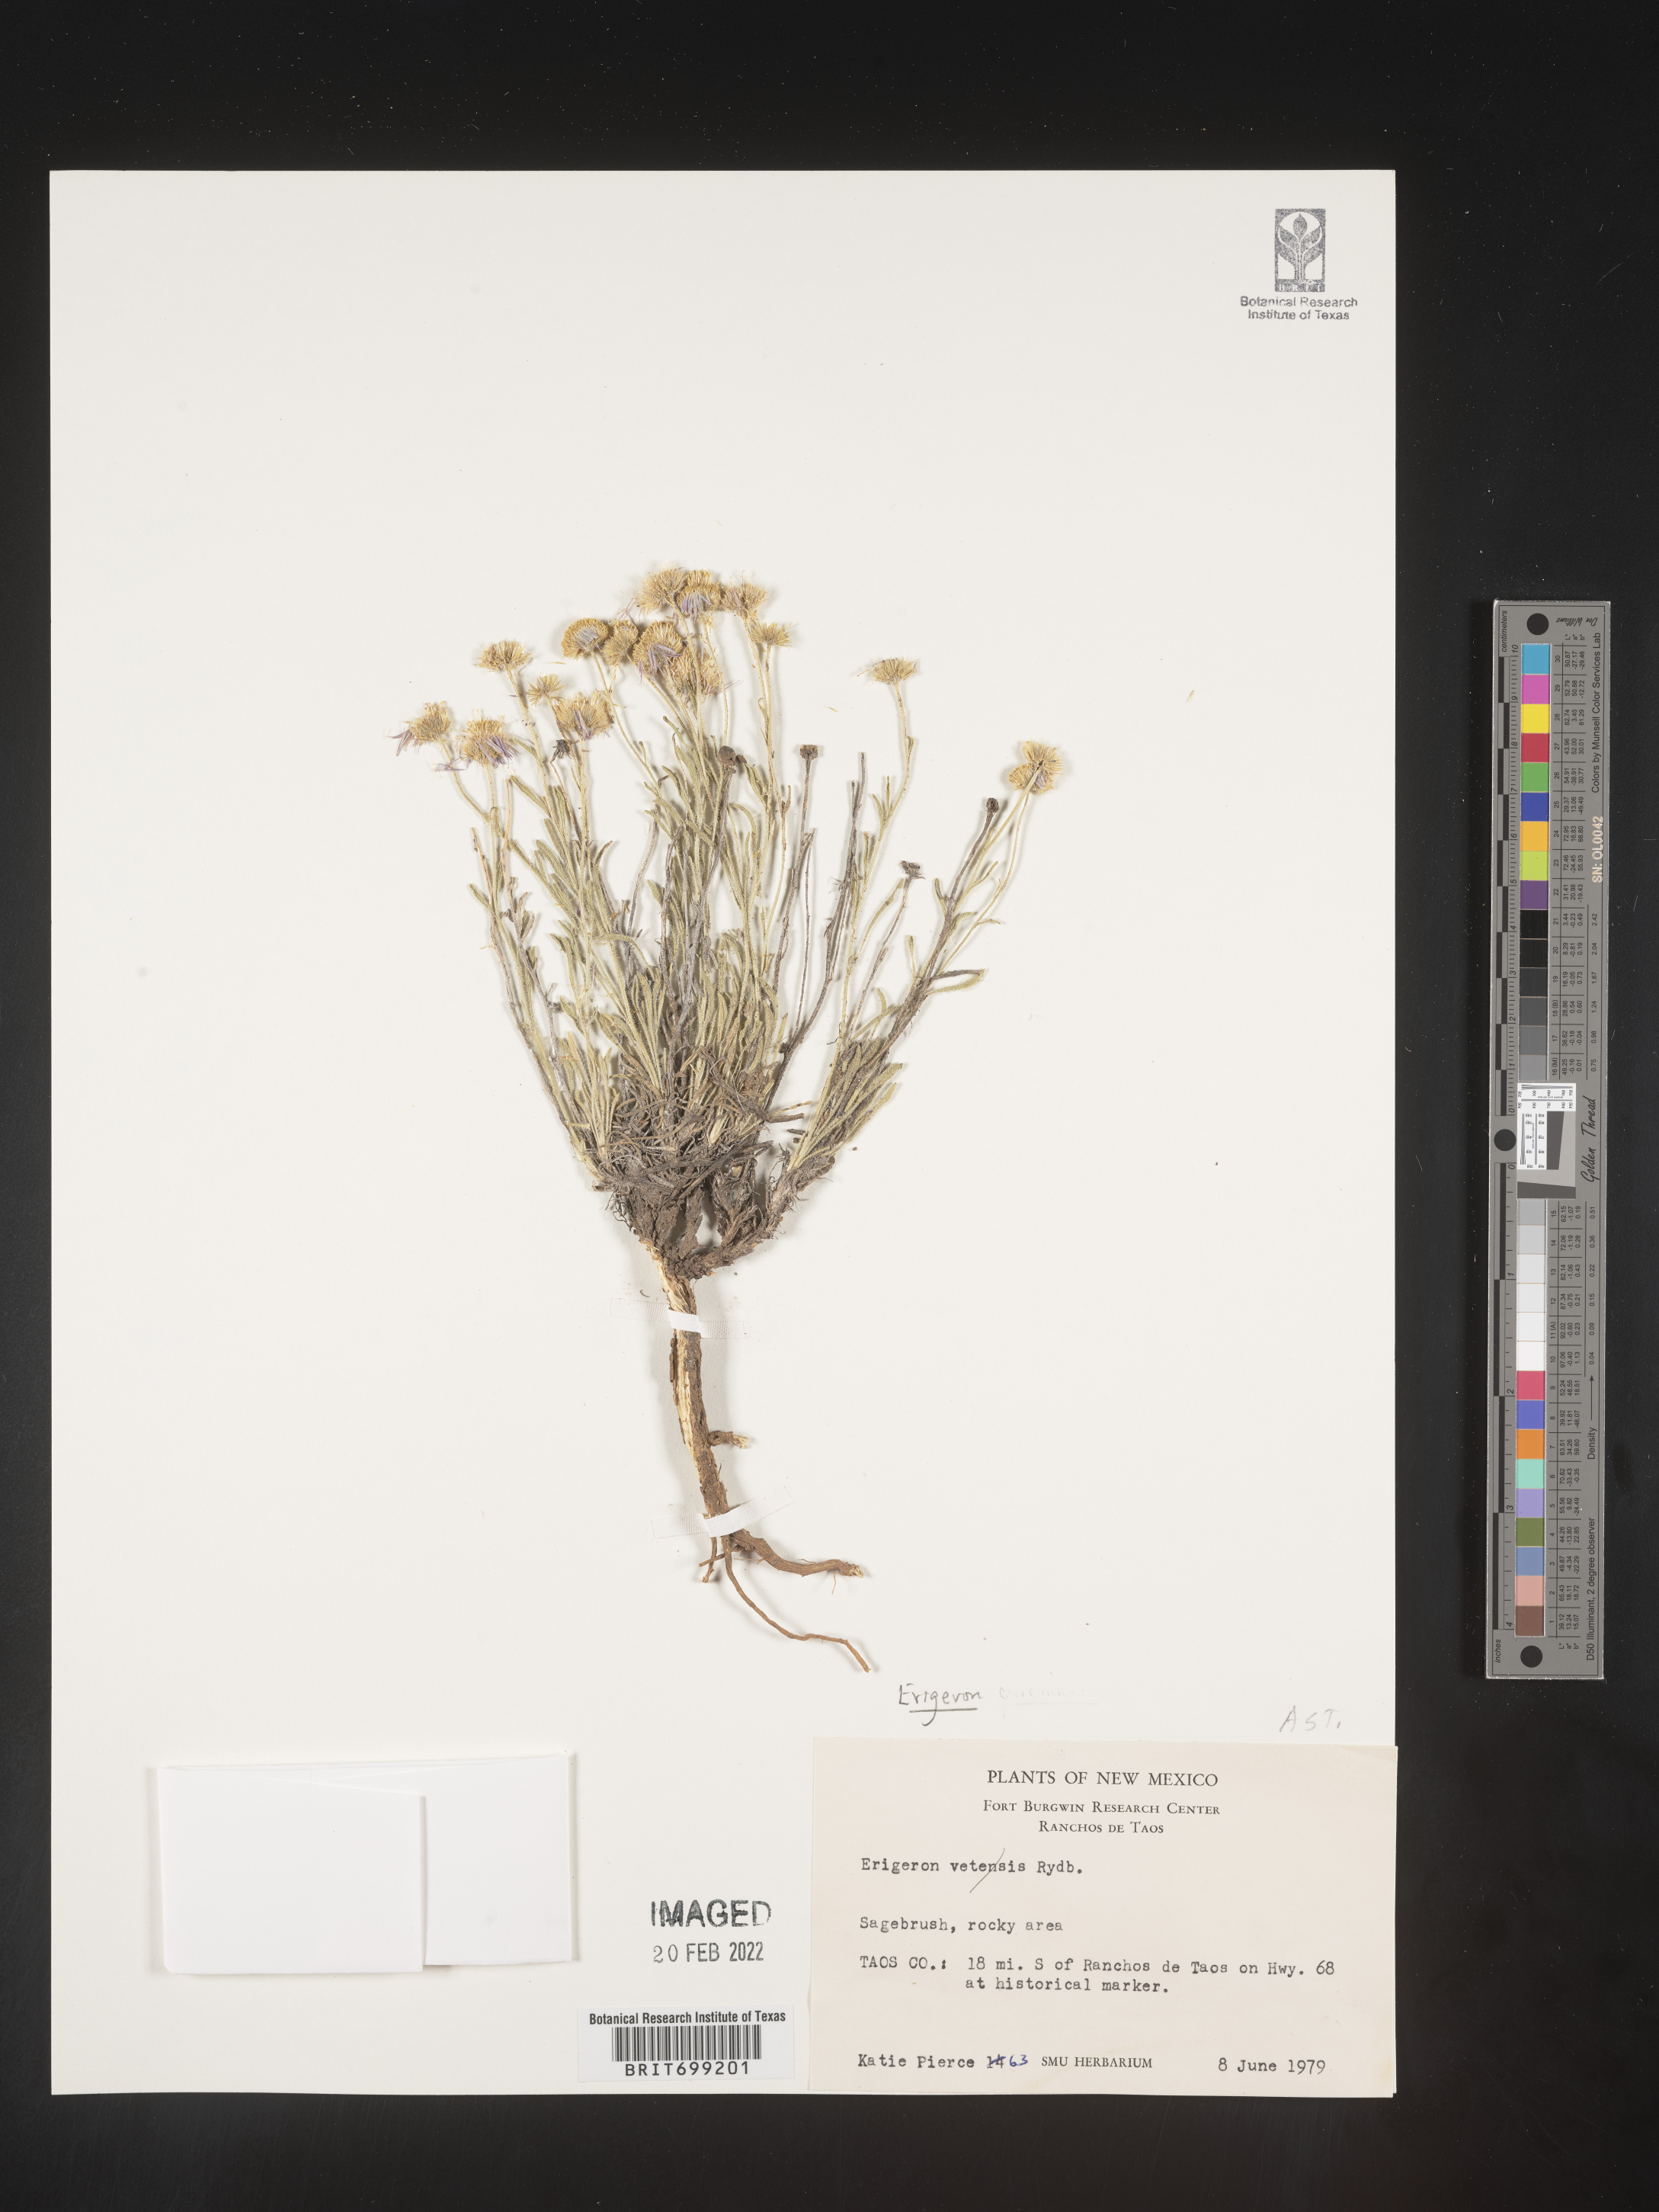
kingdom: Plantae
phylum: Tracheophyta
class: Magnoliopsida
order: Asterales
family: Asteraceae
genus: Erigeron
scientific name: Erigeron pumilus
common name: Shaggy fleabane
